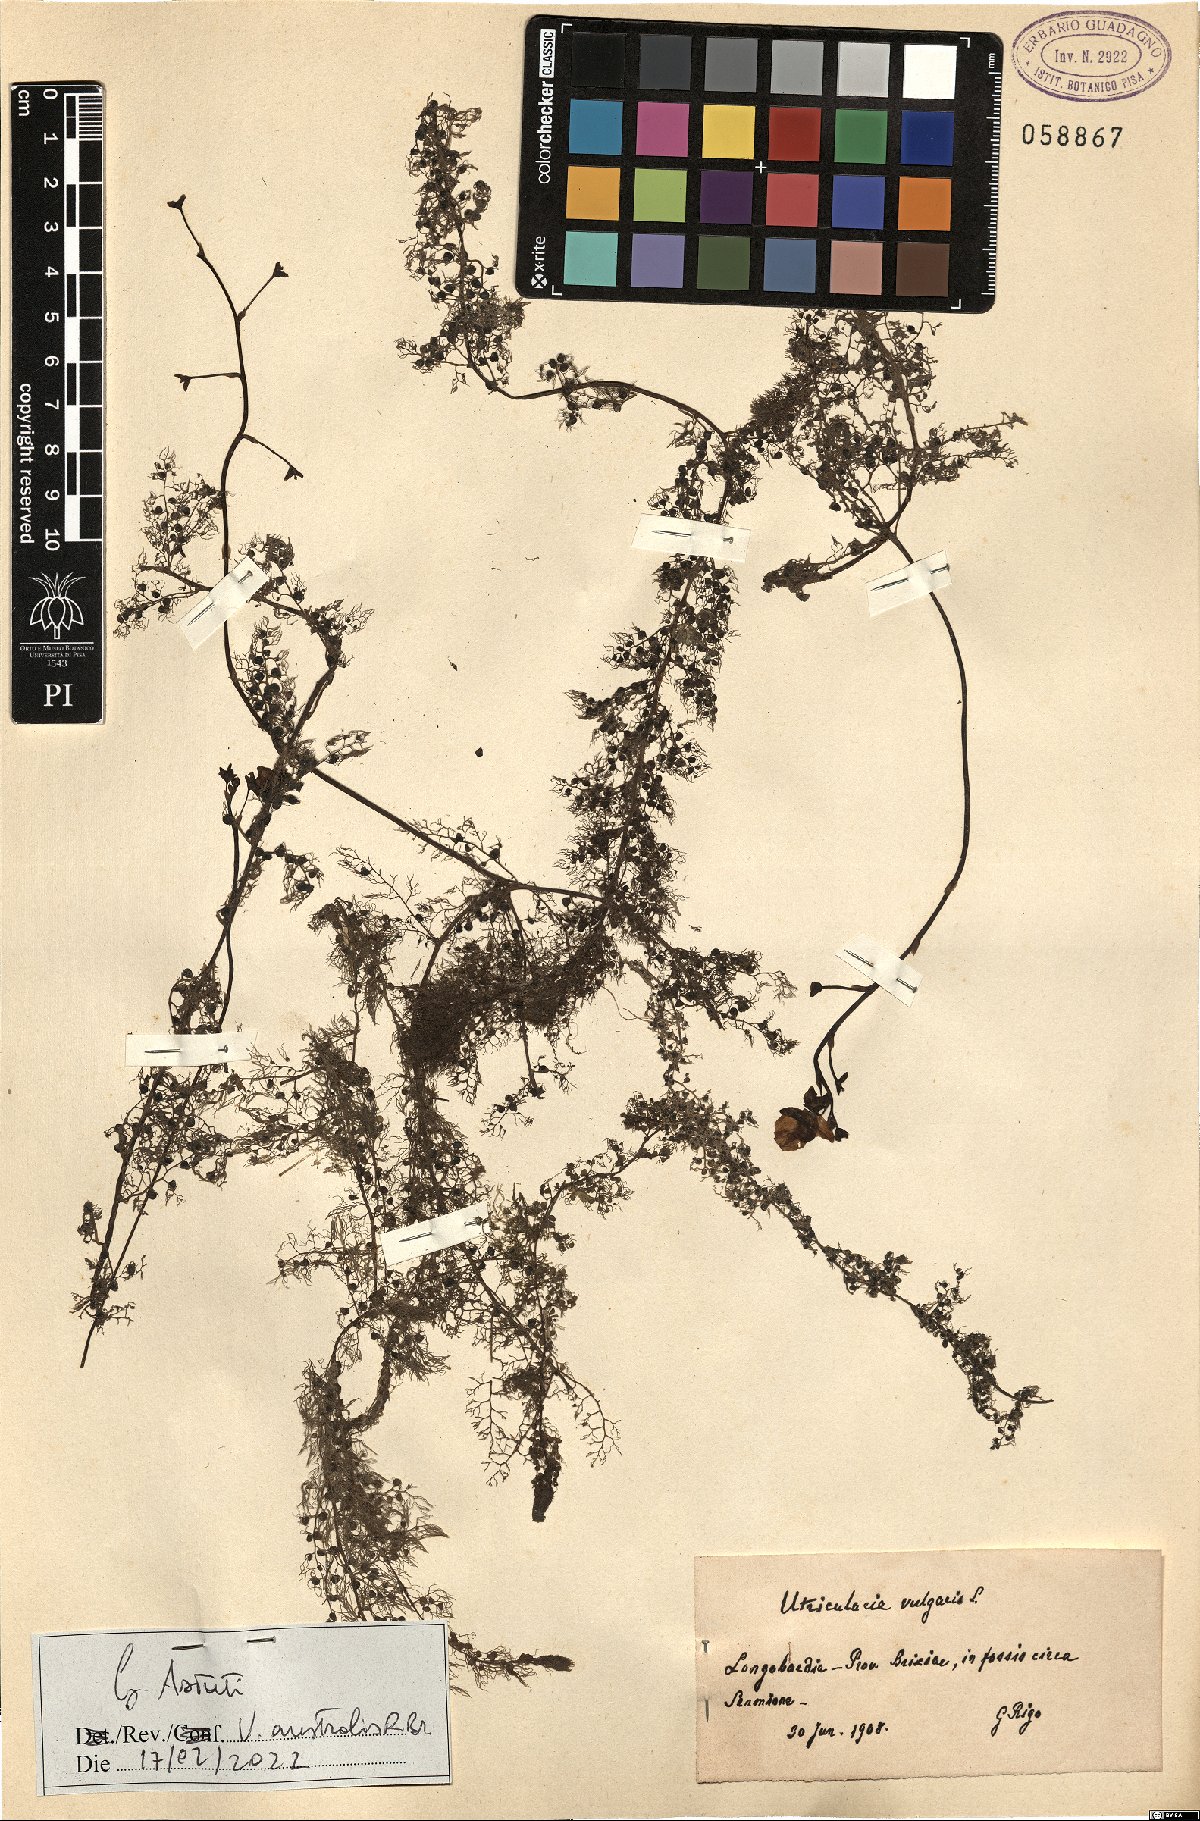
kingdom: Plantae
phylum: Tracheophyta
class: Magnoliopsida
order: Lamiales
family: Lentibulariaceae
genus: Utricularia
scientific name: Utricularia australis
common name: Bladderwort
